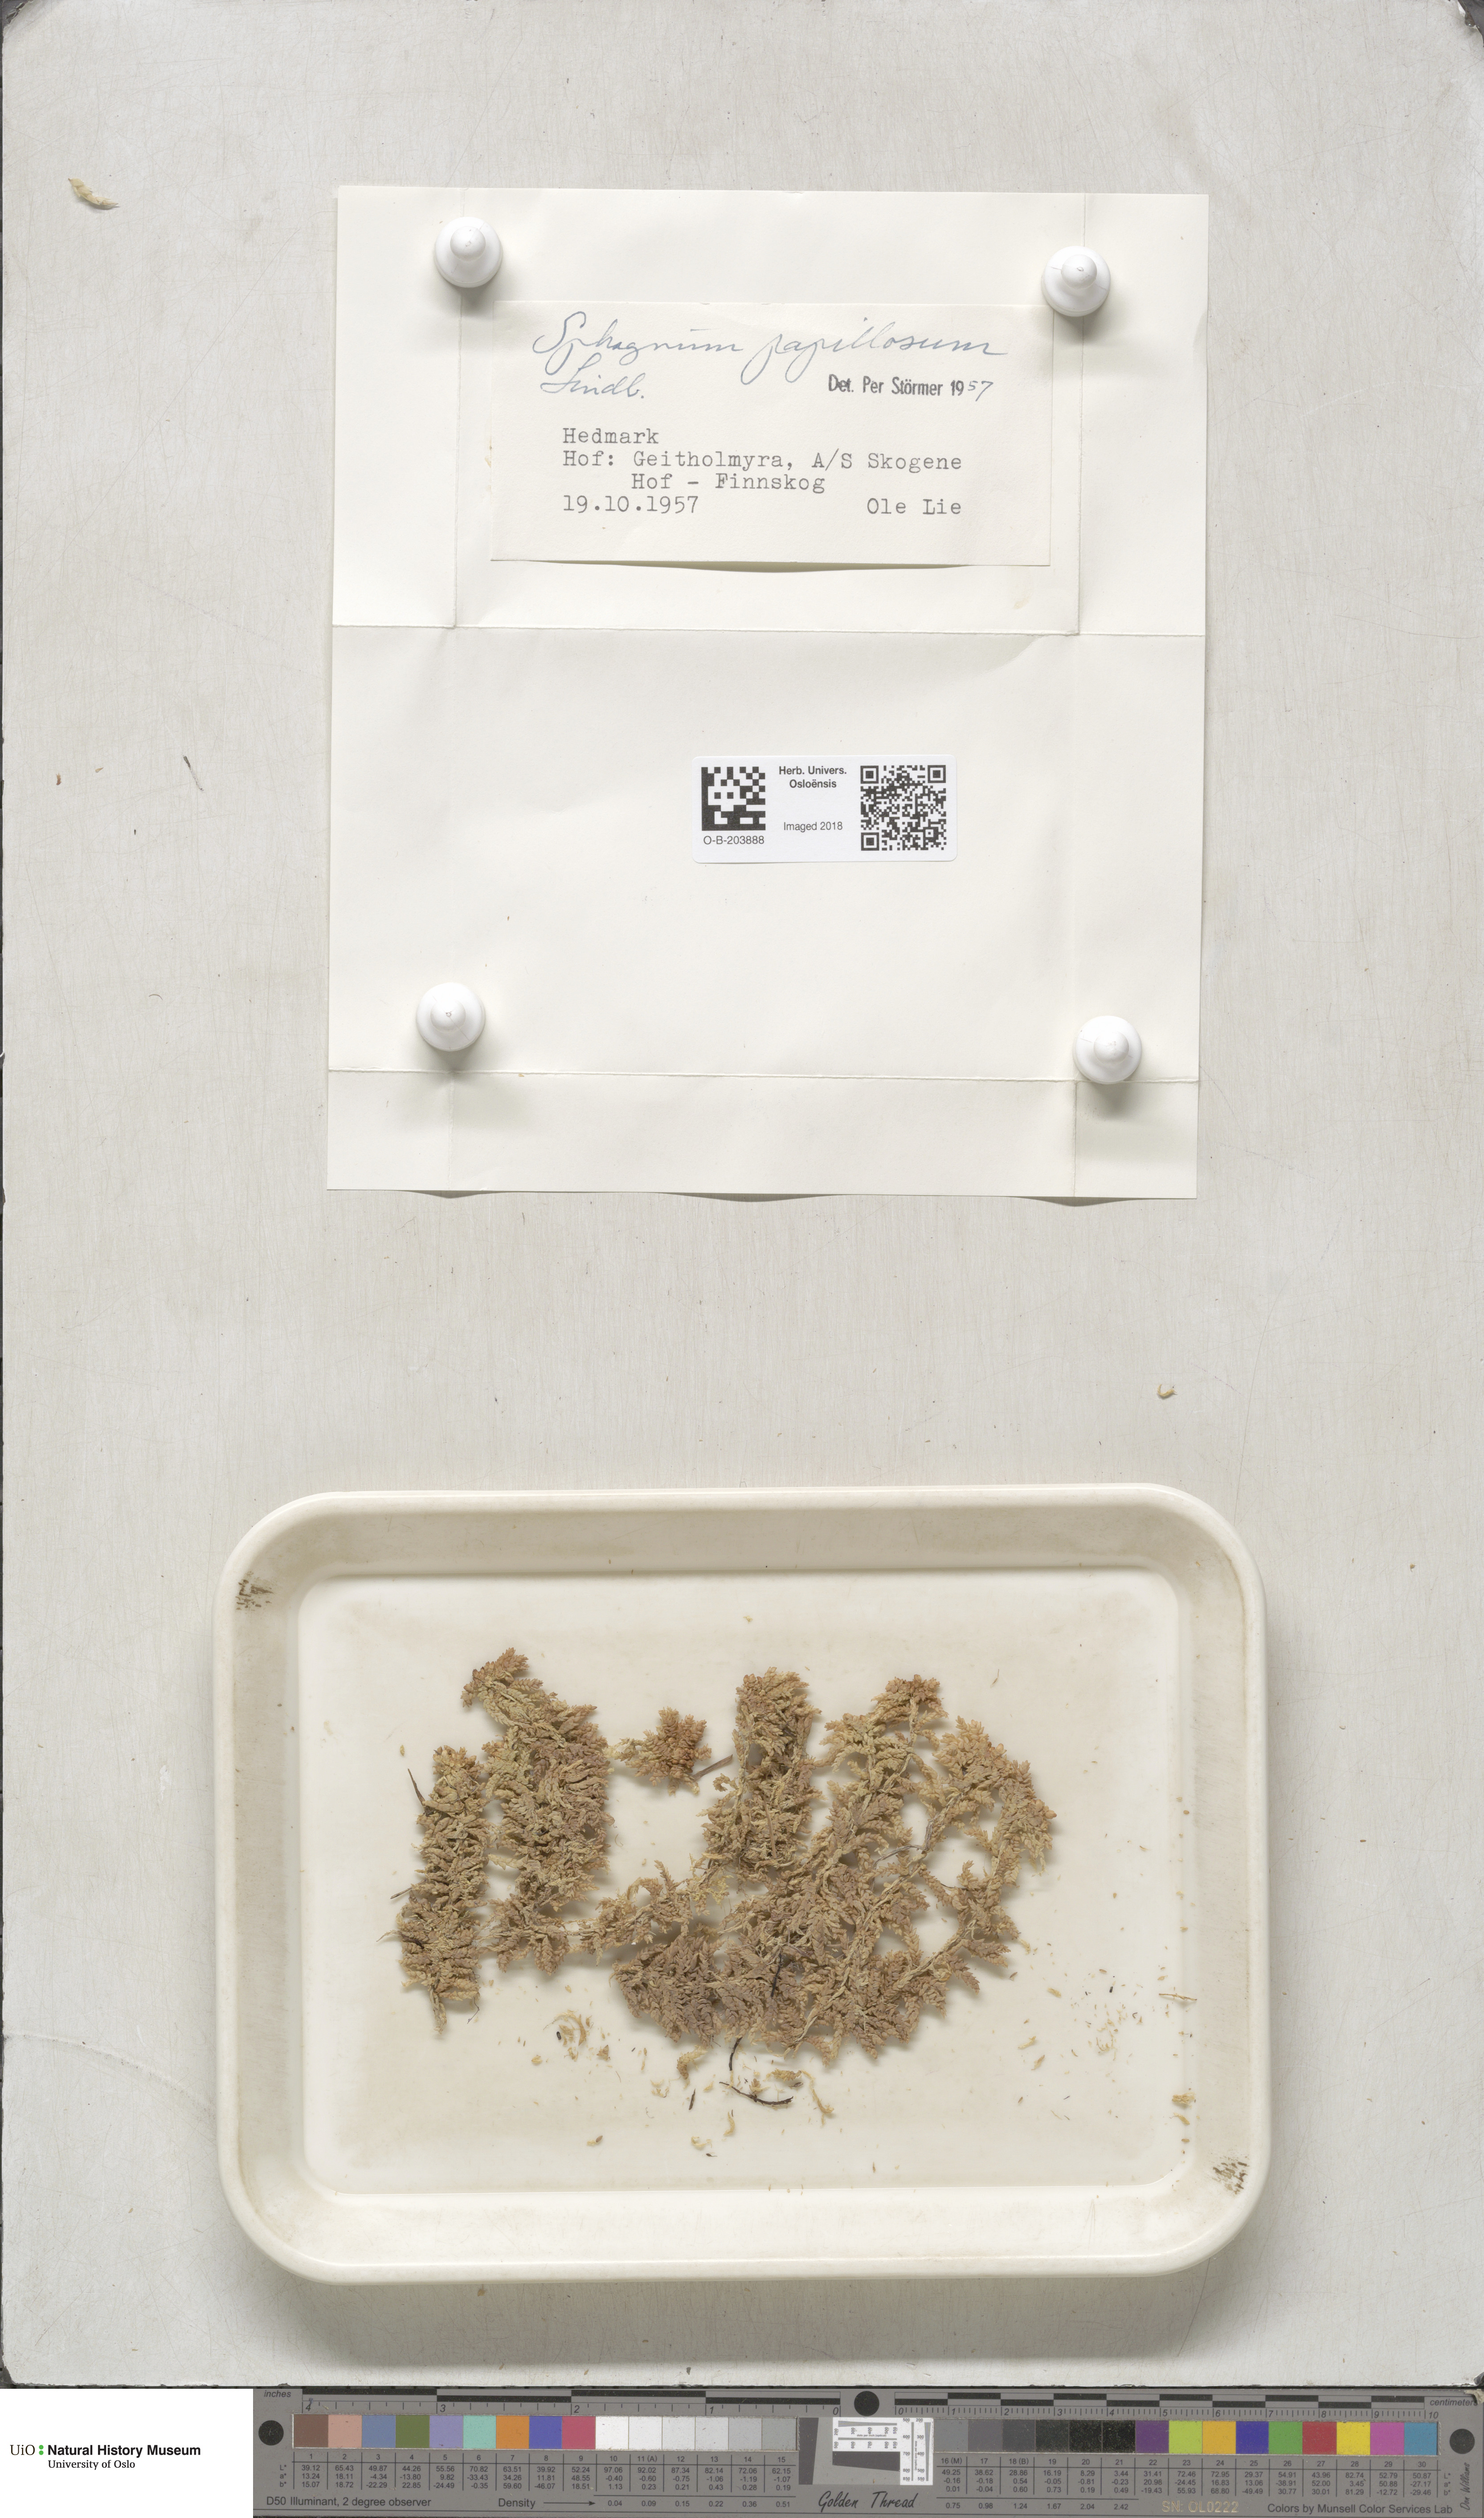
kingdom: Plantae
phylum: Bryophyta
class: Sphagnopsida
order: Sphagnales
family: Sphagnaceae
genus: Sphagnum
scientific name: Sphagnum papillosum
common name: Papillose peat moss
